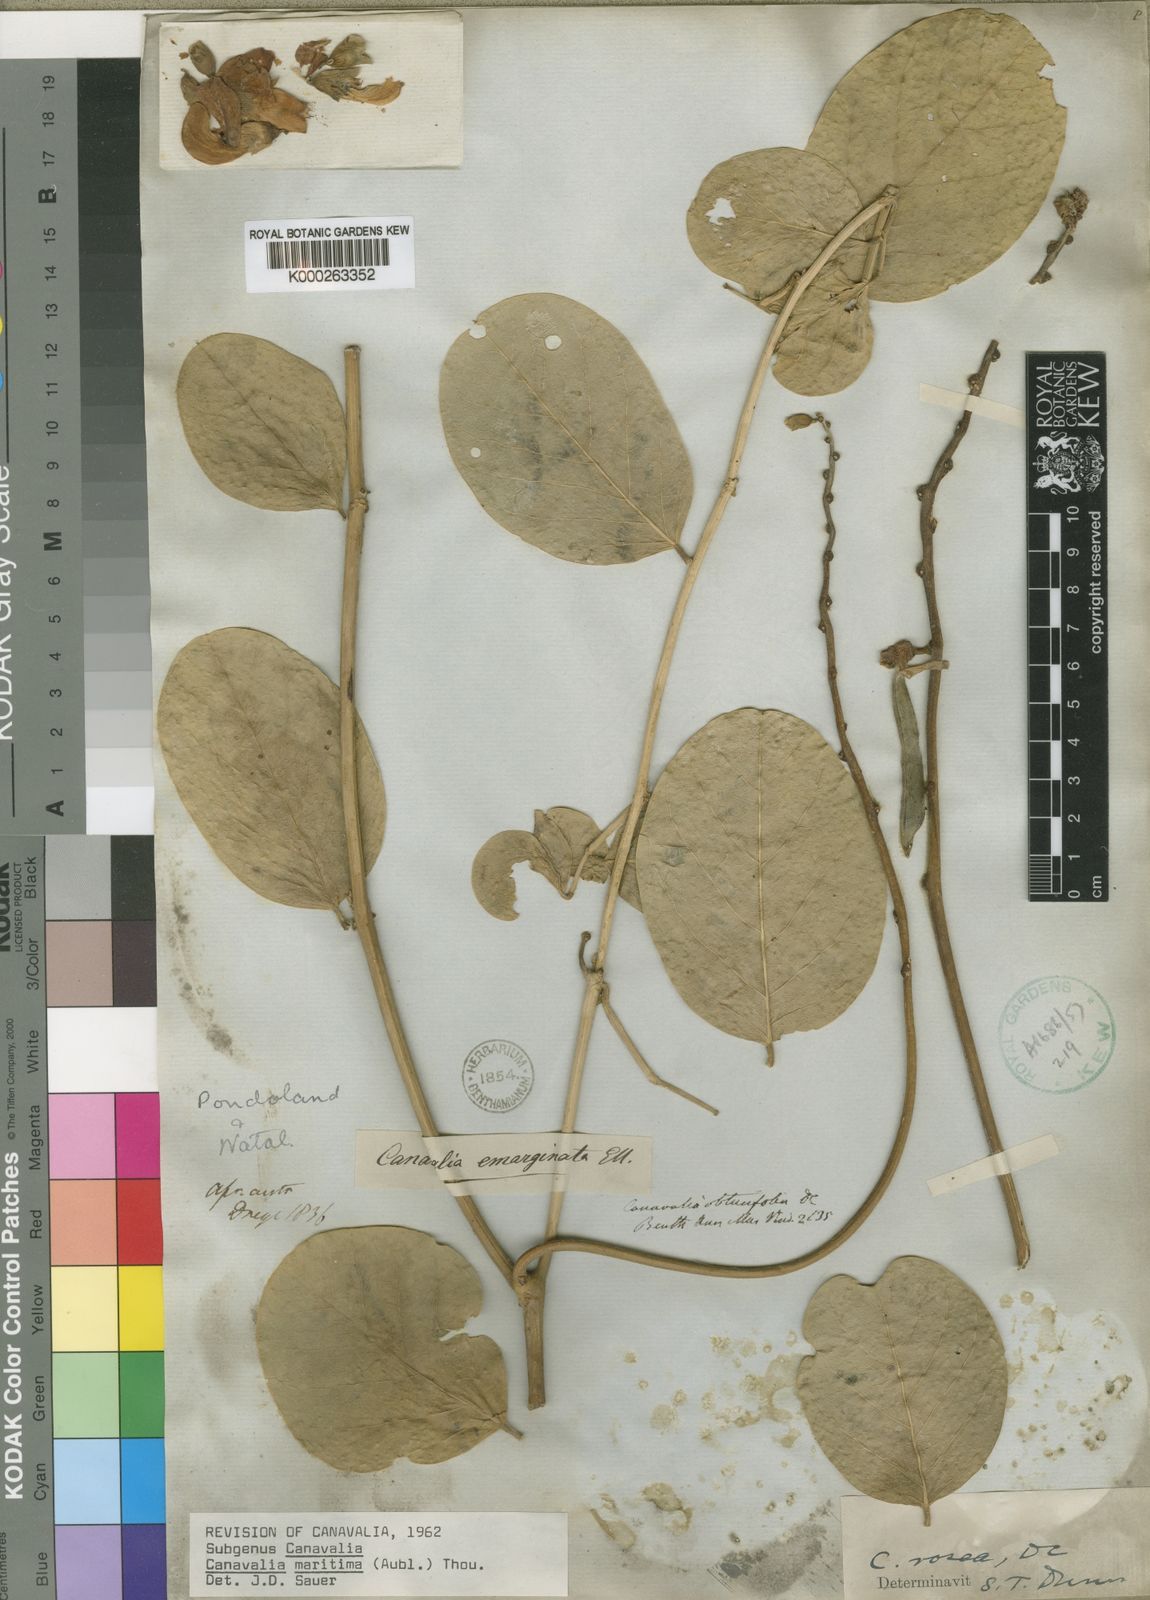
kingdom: Plantae
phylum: Tracheophyta
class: Magnoliopsida
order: Fabales
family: Fabaceae
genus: Canavalia
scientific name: Canavalia rosea
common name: Beach-bean
